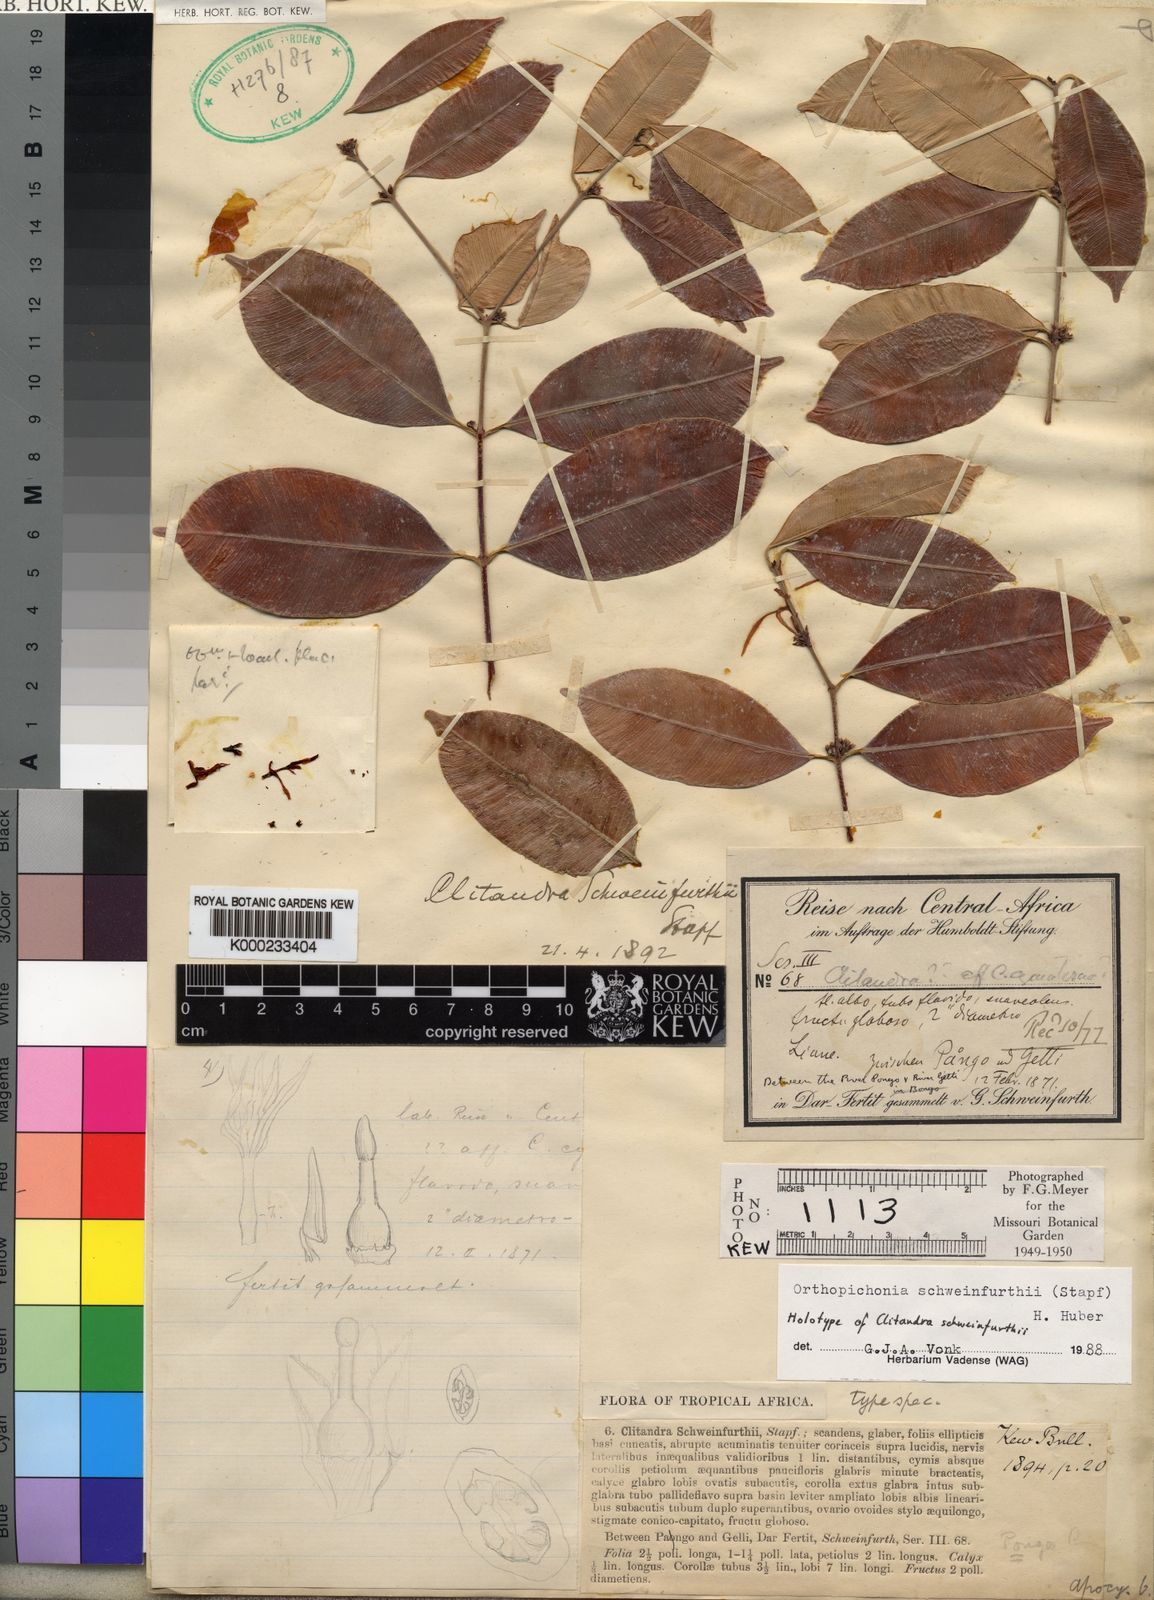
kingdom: Plantae
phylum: Tracheophyta
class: Magnoliopsida
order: Gentianales
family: Apocynaceae
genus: Orthopichonia
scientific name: Orthopichonia schweinfurthii
